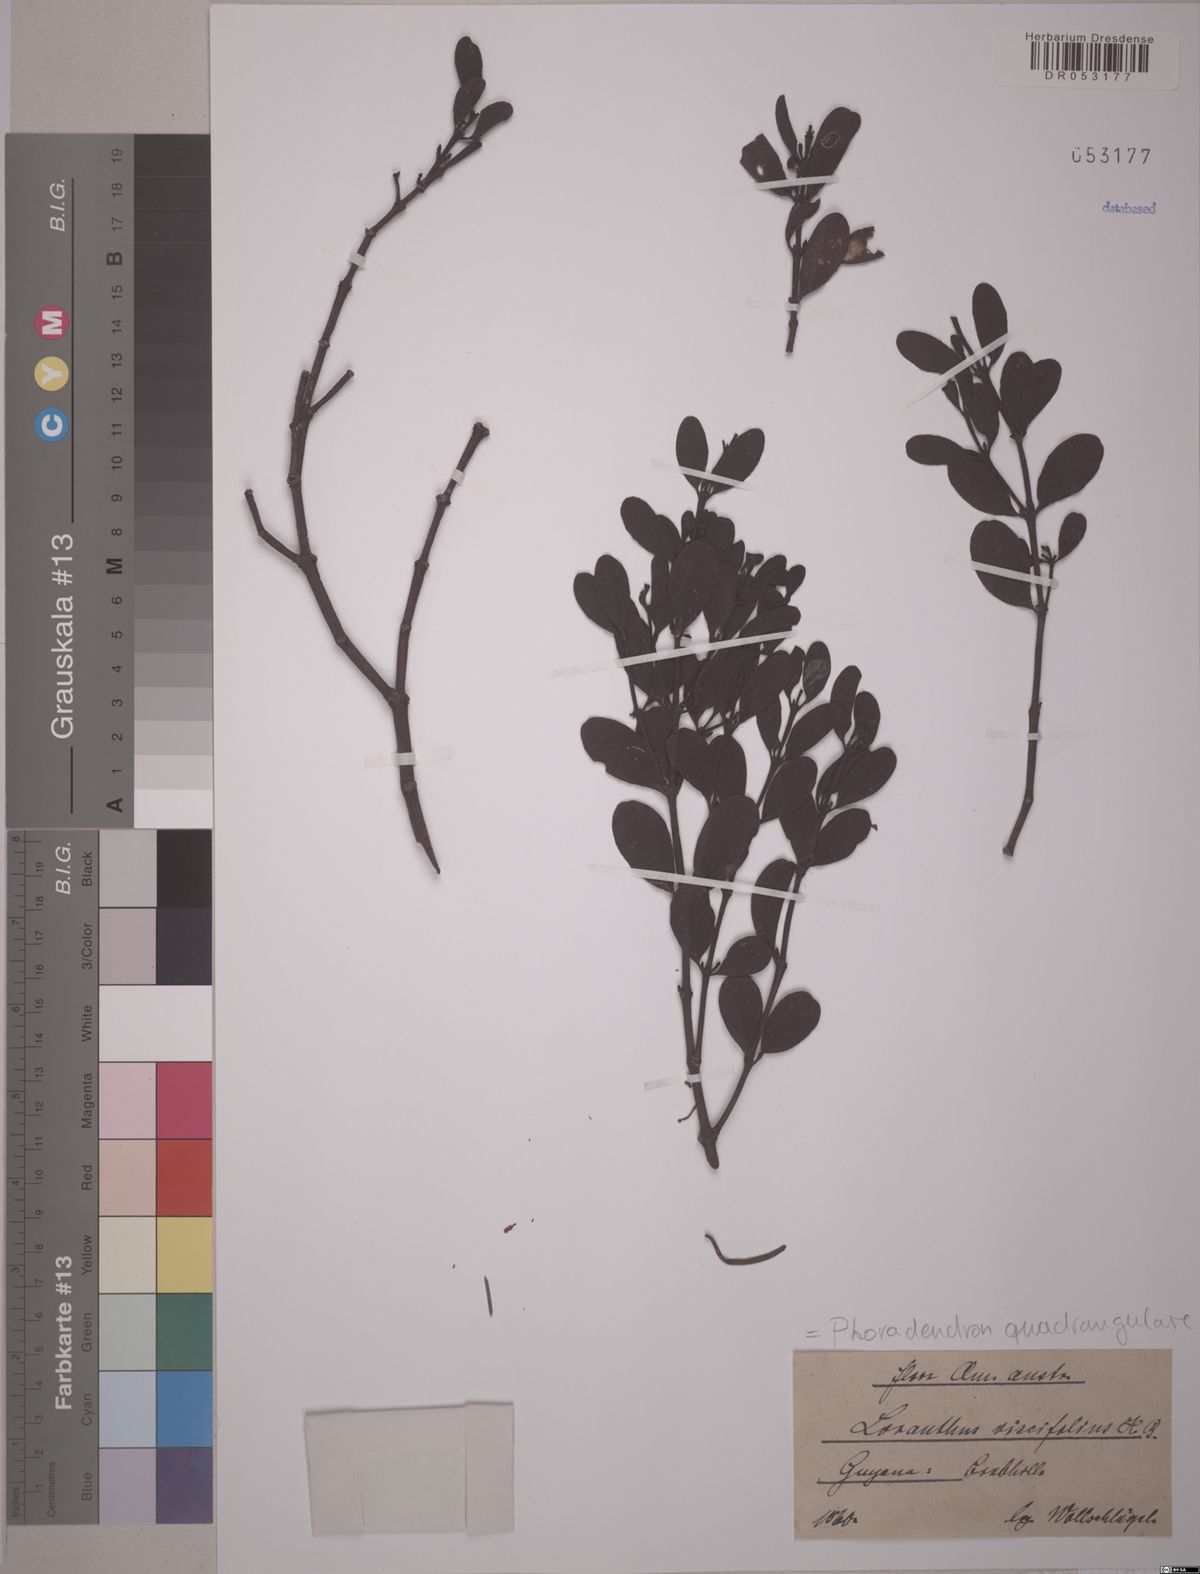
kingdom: Plantae
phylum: Tracheophyta
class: Magnoliopsida
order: Santalales
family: Viscaceae
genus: Phoradendron
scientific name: Phoradendron quadrangulare
